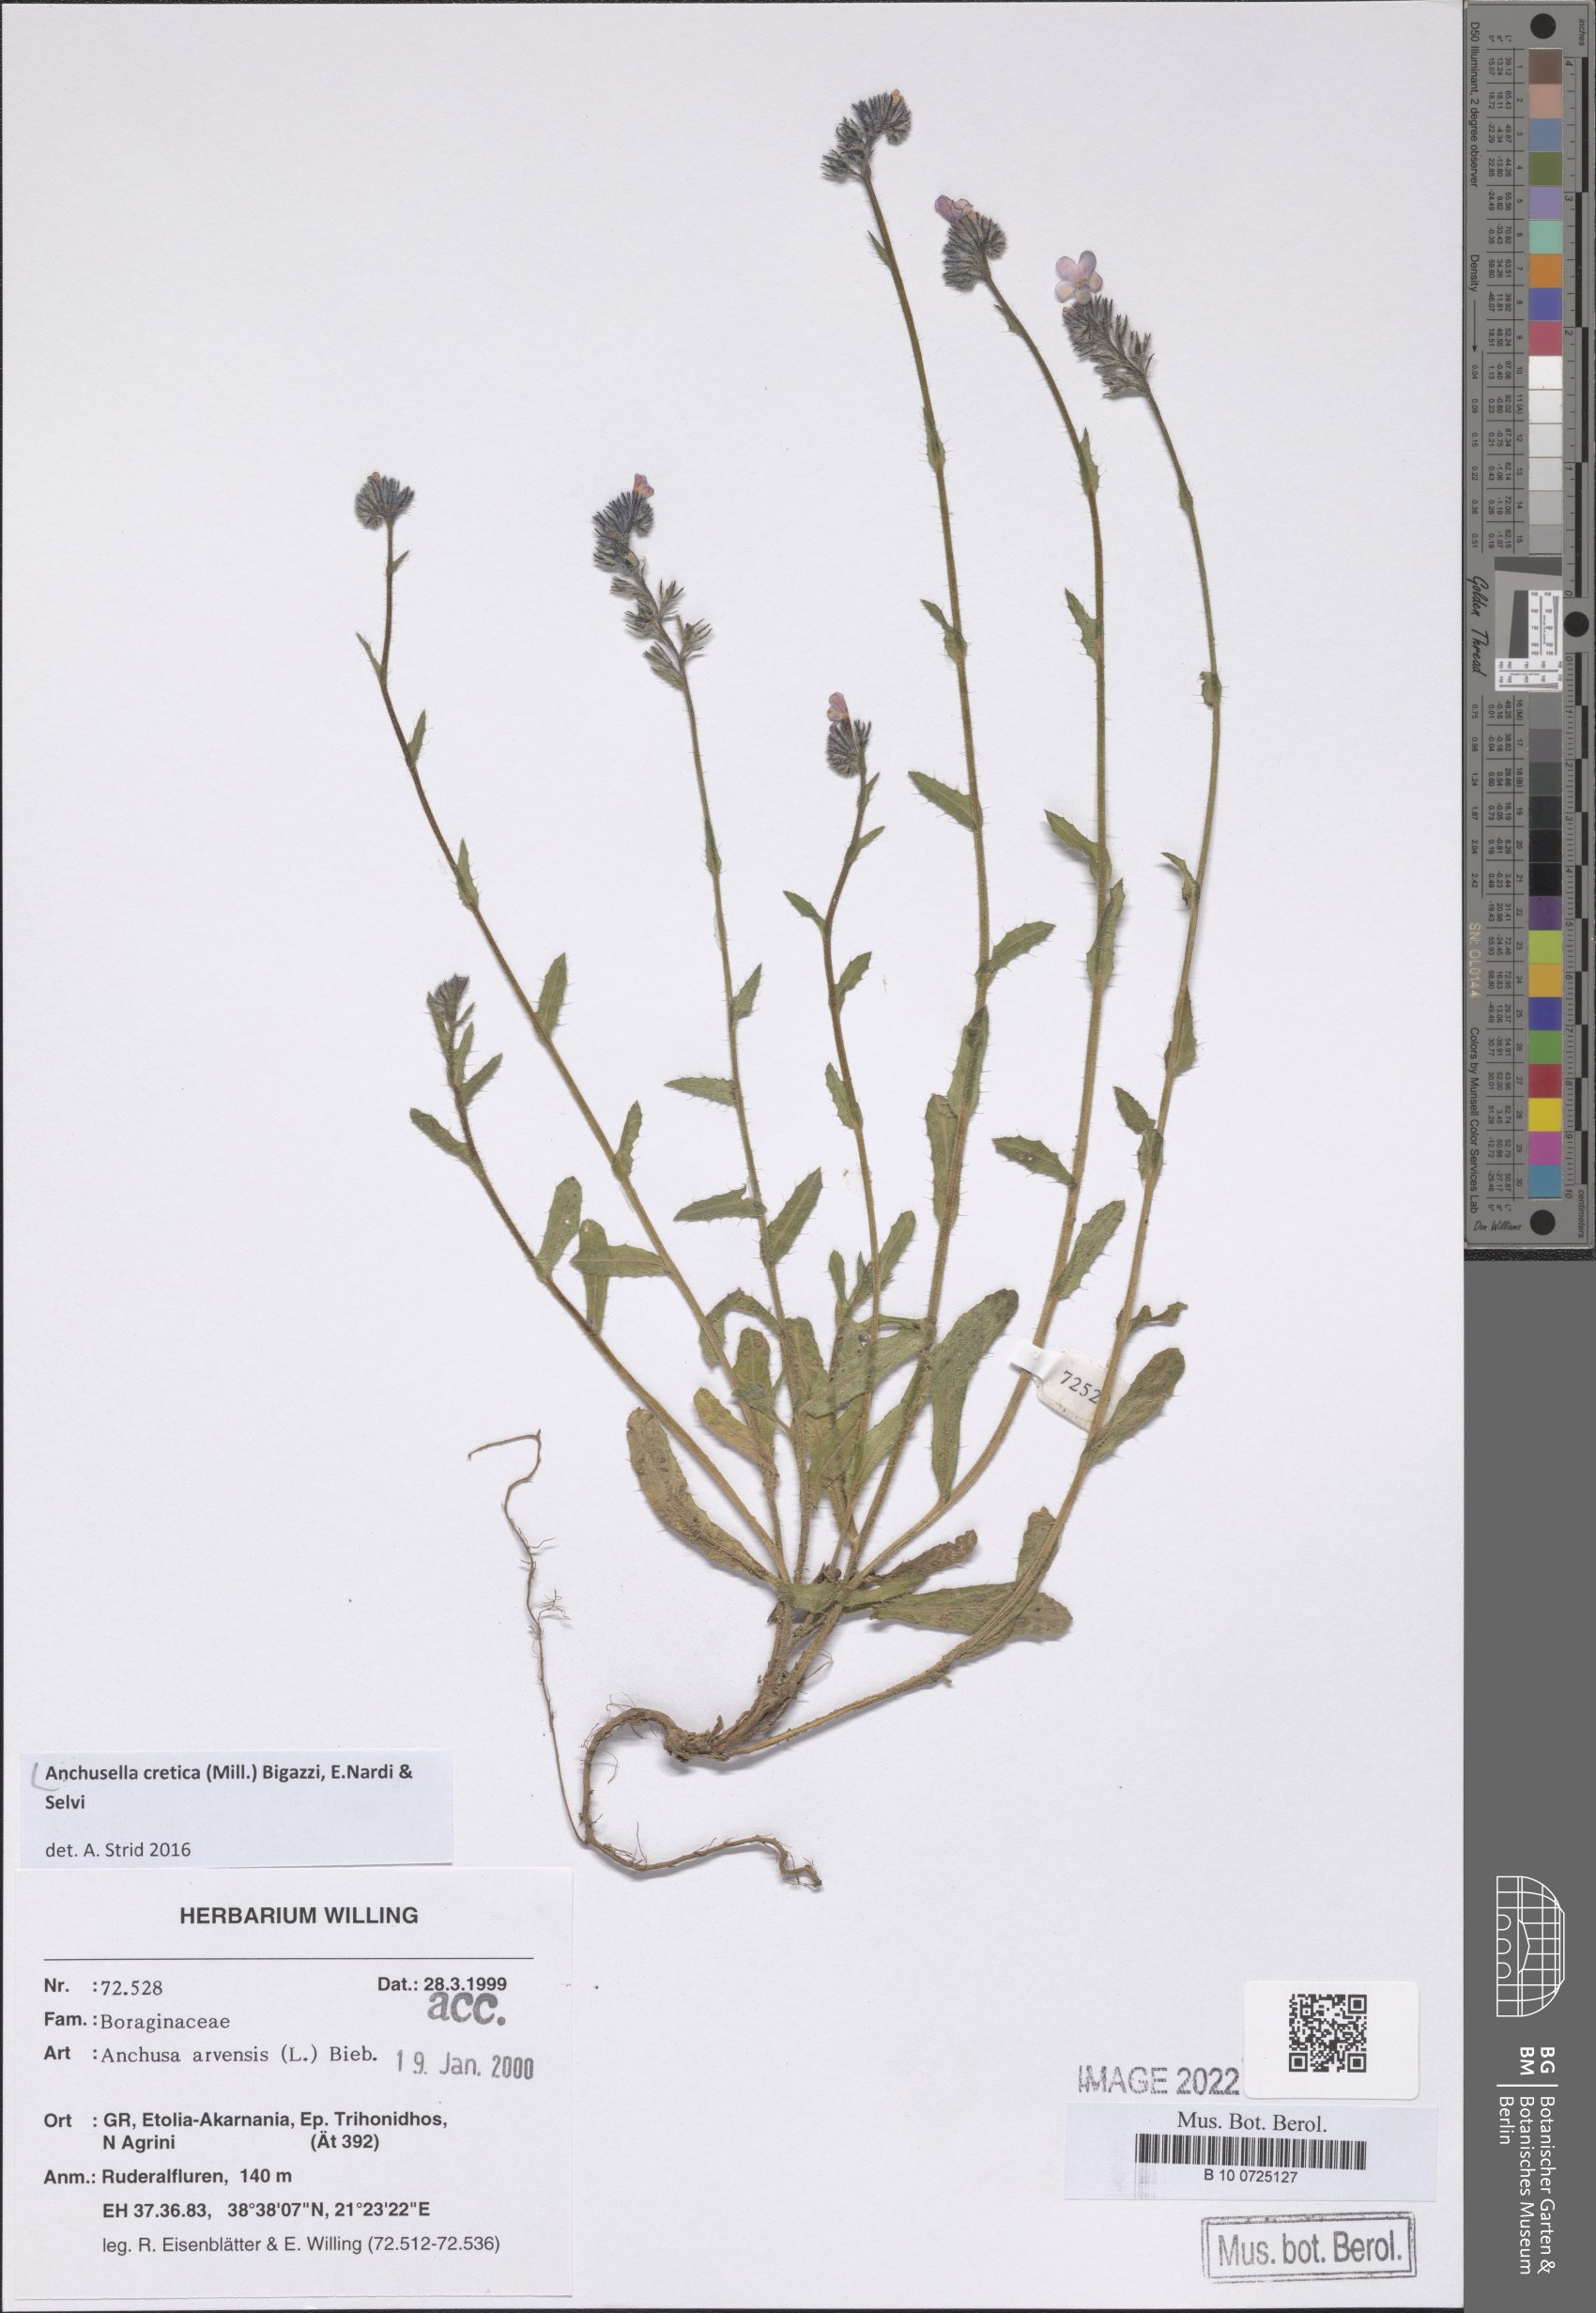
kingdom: Plantae
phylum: Tracheophyta
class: Magnoliopsida
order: Boraginales
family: Boraginaceae
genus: Anchusella
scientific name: Anchusella cretica
